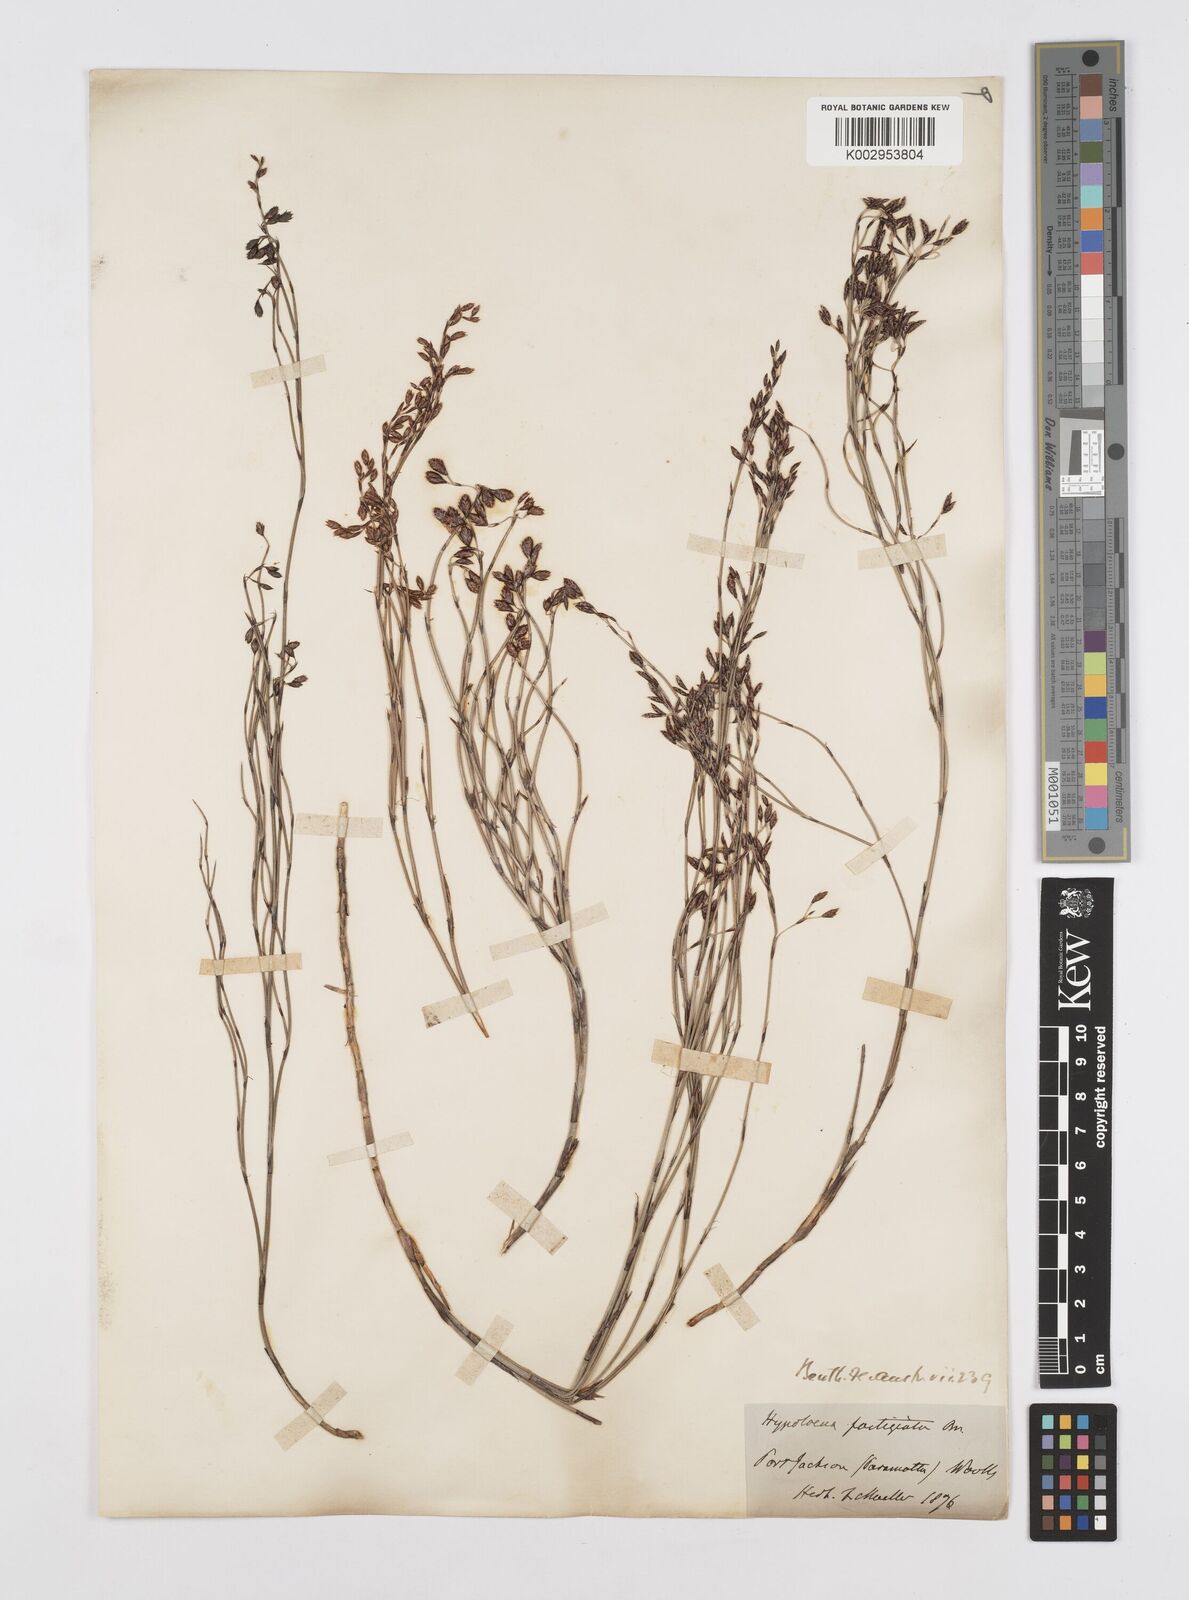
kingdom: Plantae
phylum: Tracheophyta
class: Liliopsida
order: Poales
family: Restionaceae
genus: Hypolaena
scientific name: Hypolaena fastigiata
